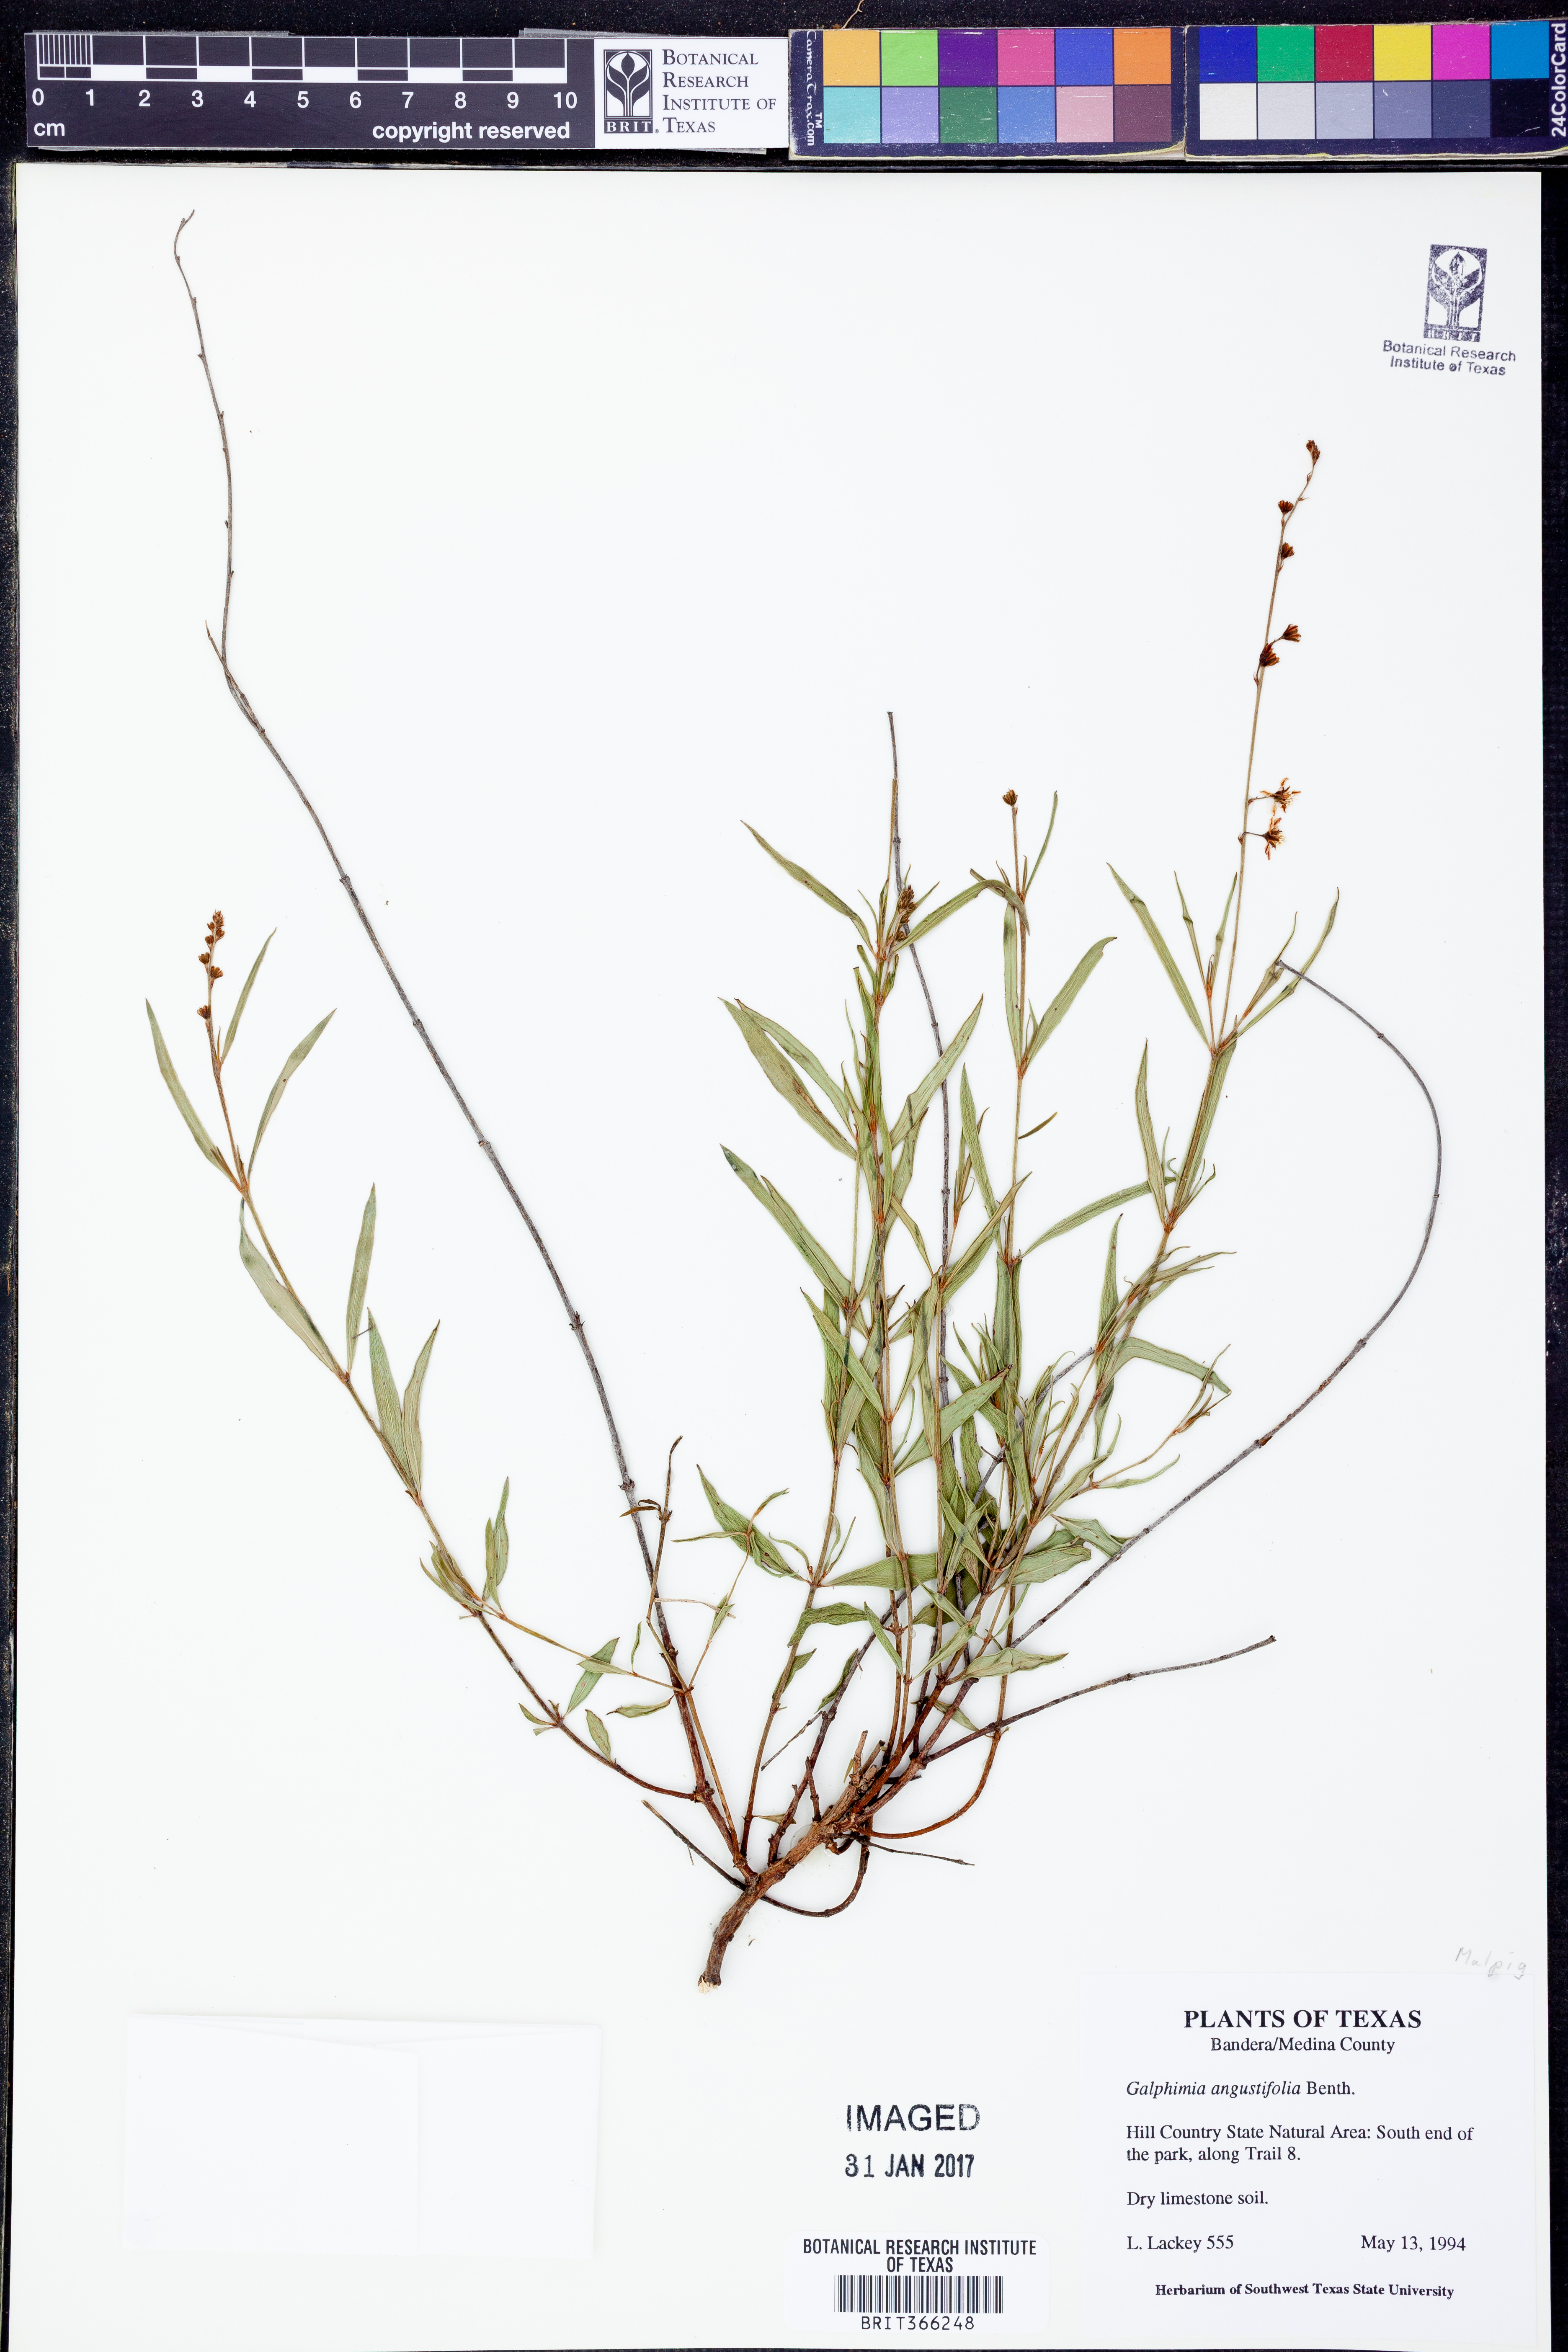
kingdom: Plantae
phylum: Tracheophyta
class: Magnoliopsida
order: Malpighiales
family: Malpighiaceae
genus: Malpighia
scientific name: Malpighia linearis
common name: Bastard cherry
